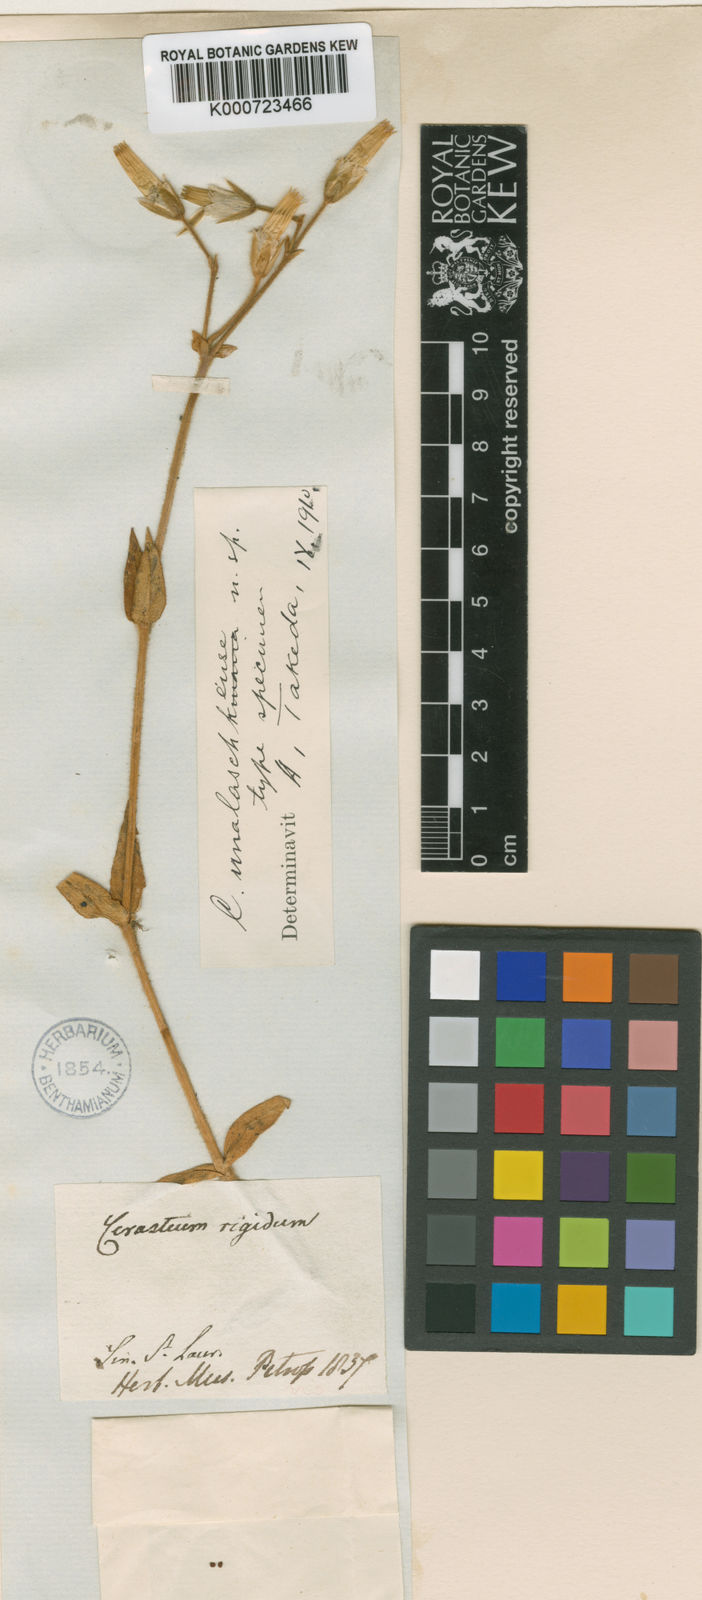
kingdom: Plantae
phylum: Tracheophyta
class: Magnoliopsida
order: Caryophyllales
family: Caryophyllaceae
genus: Cerastium
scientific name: Cerastium fischerianum
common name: Fischer's chickweed
